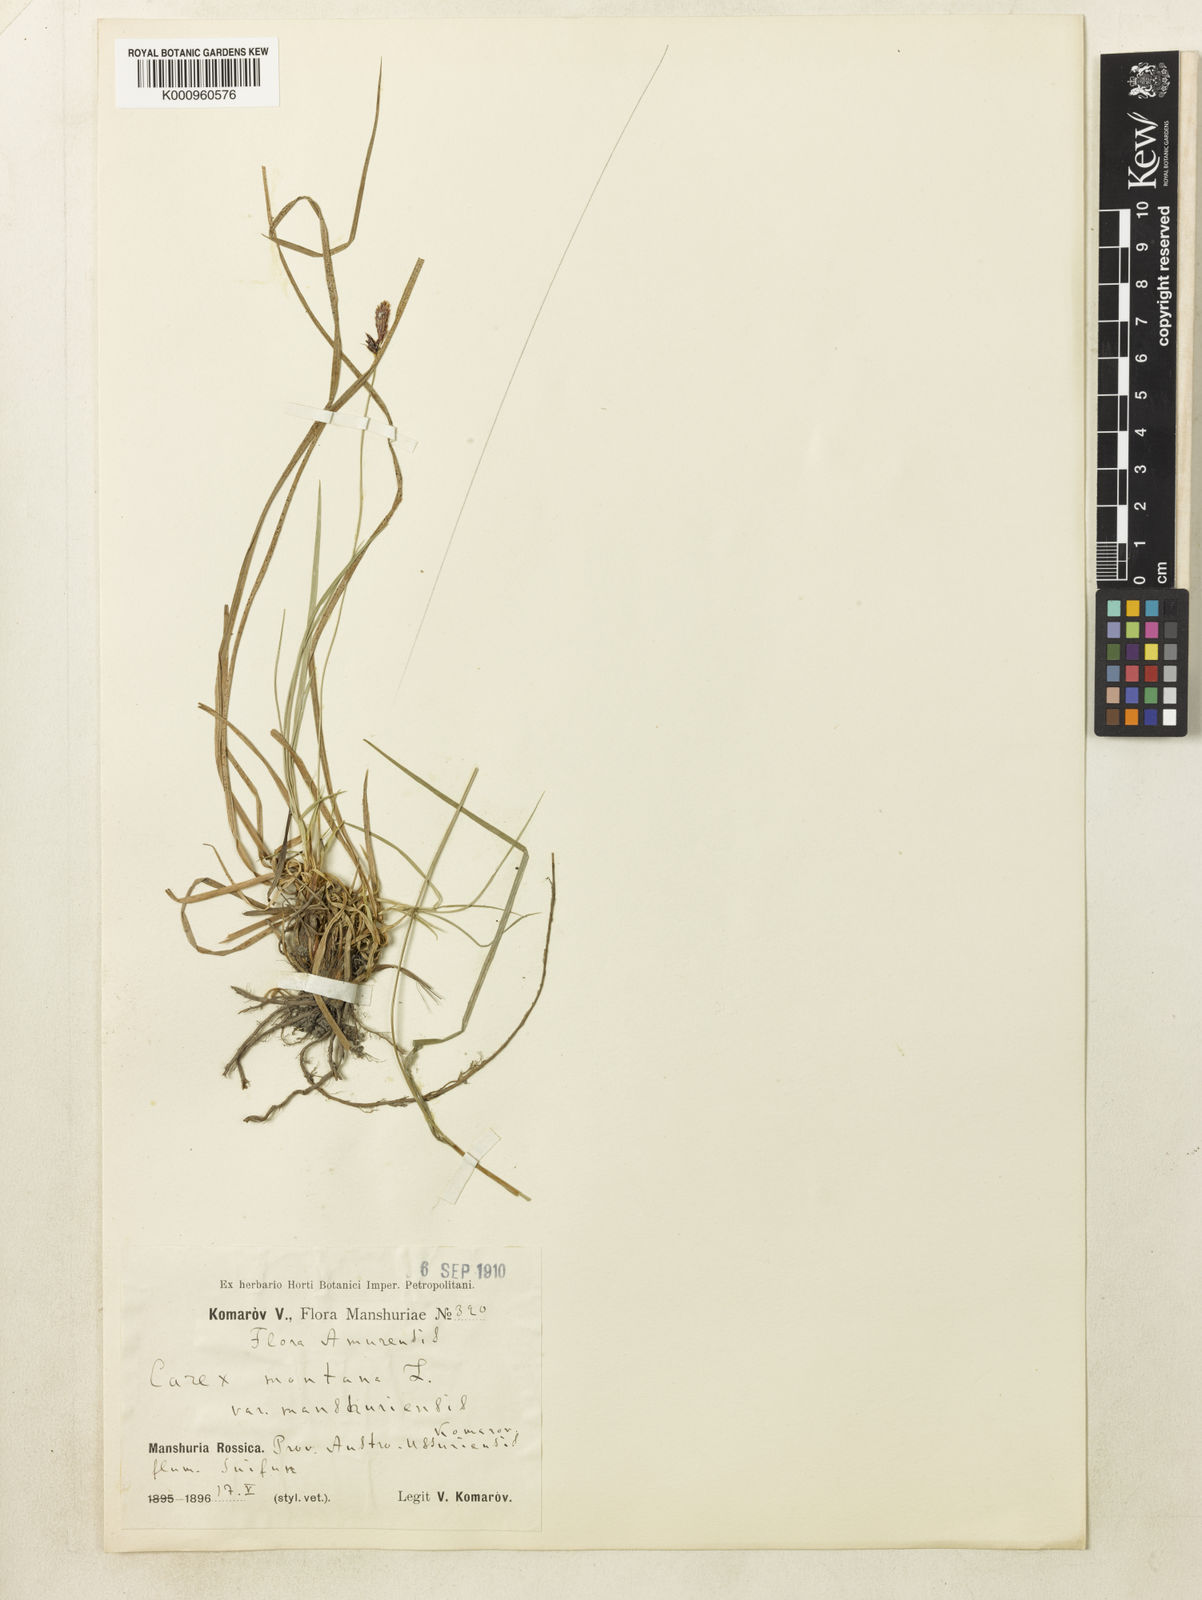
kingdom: Plantae
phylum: Tracheophyta
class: Liliopsida
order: Poales
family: Cyperaceae
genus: Carex
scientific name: Carex montana
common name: Soft-leaved sedge
